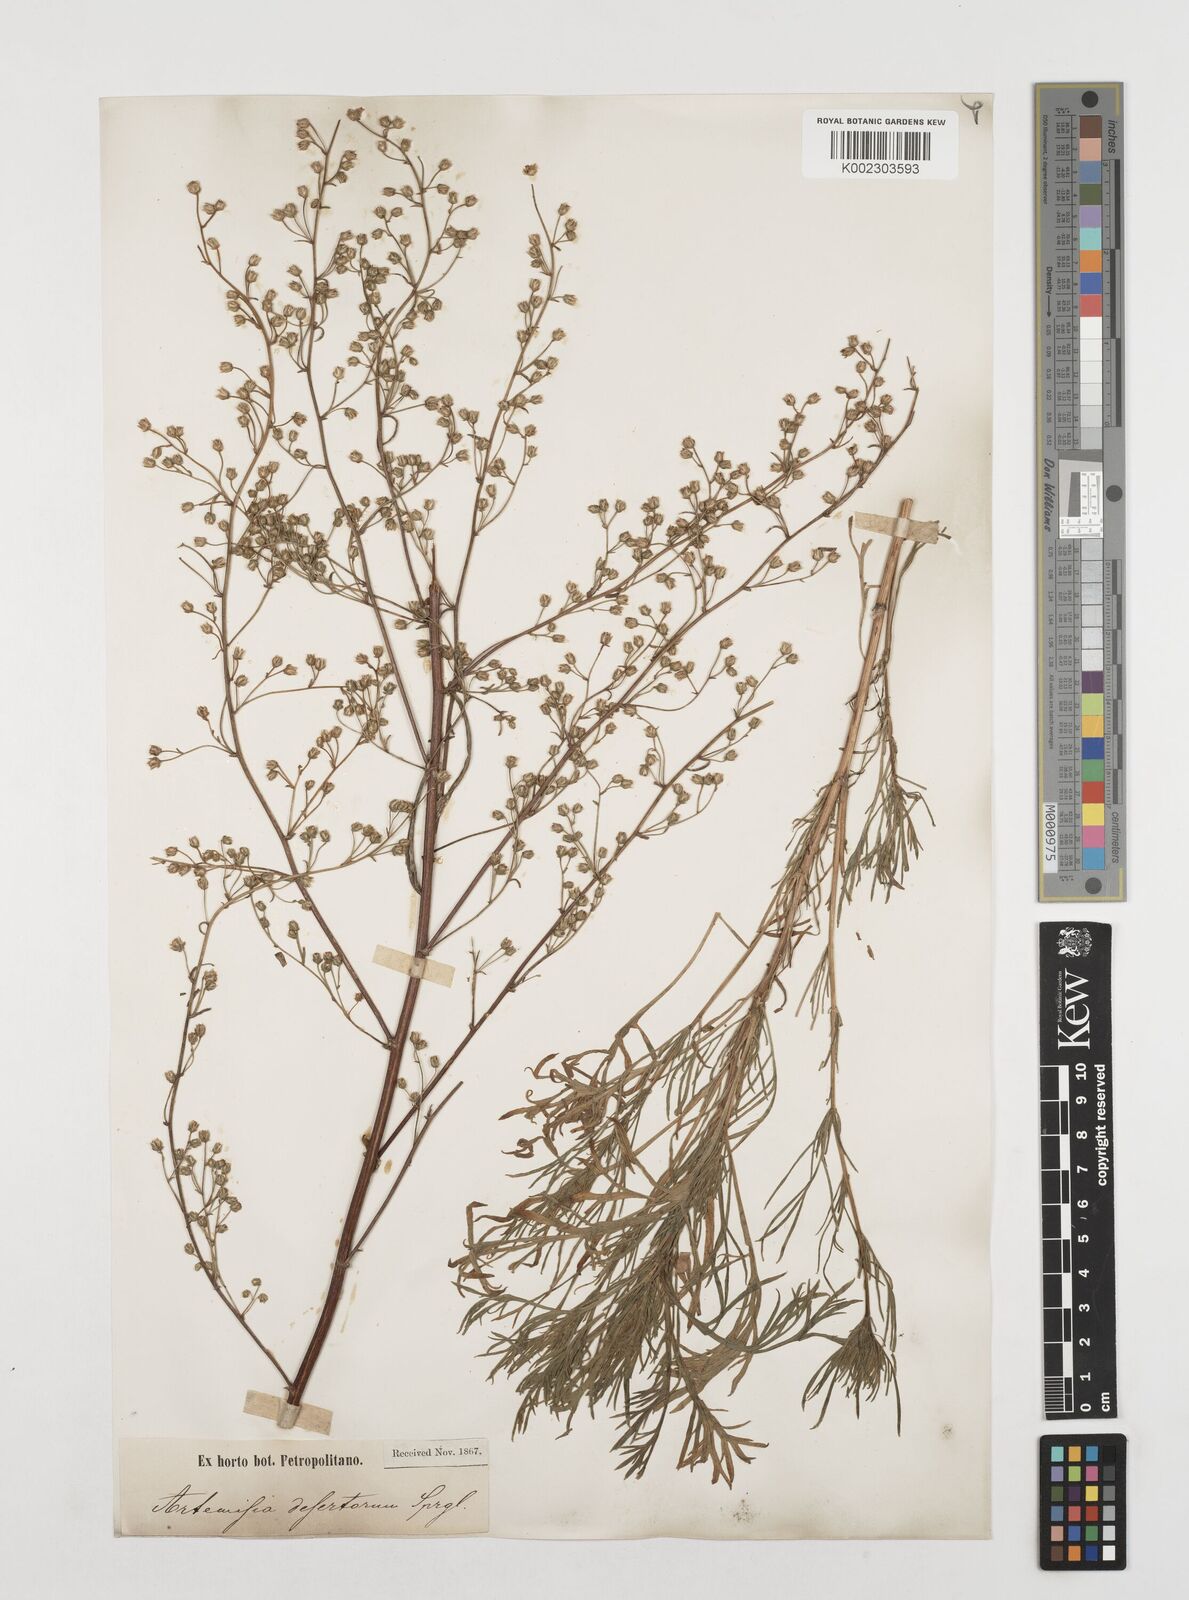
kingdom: Plantae
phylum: Tracheophyta
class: Magnoliopsida
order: Asterales
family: Asteraceae
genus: Artemisia
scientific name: Artemisia desertorum
